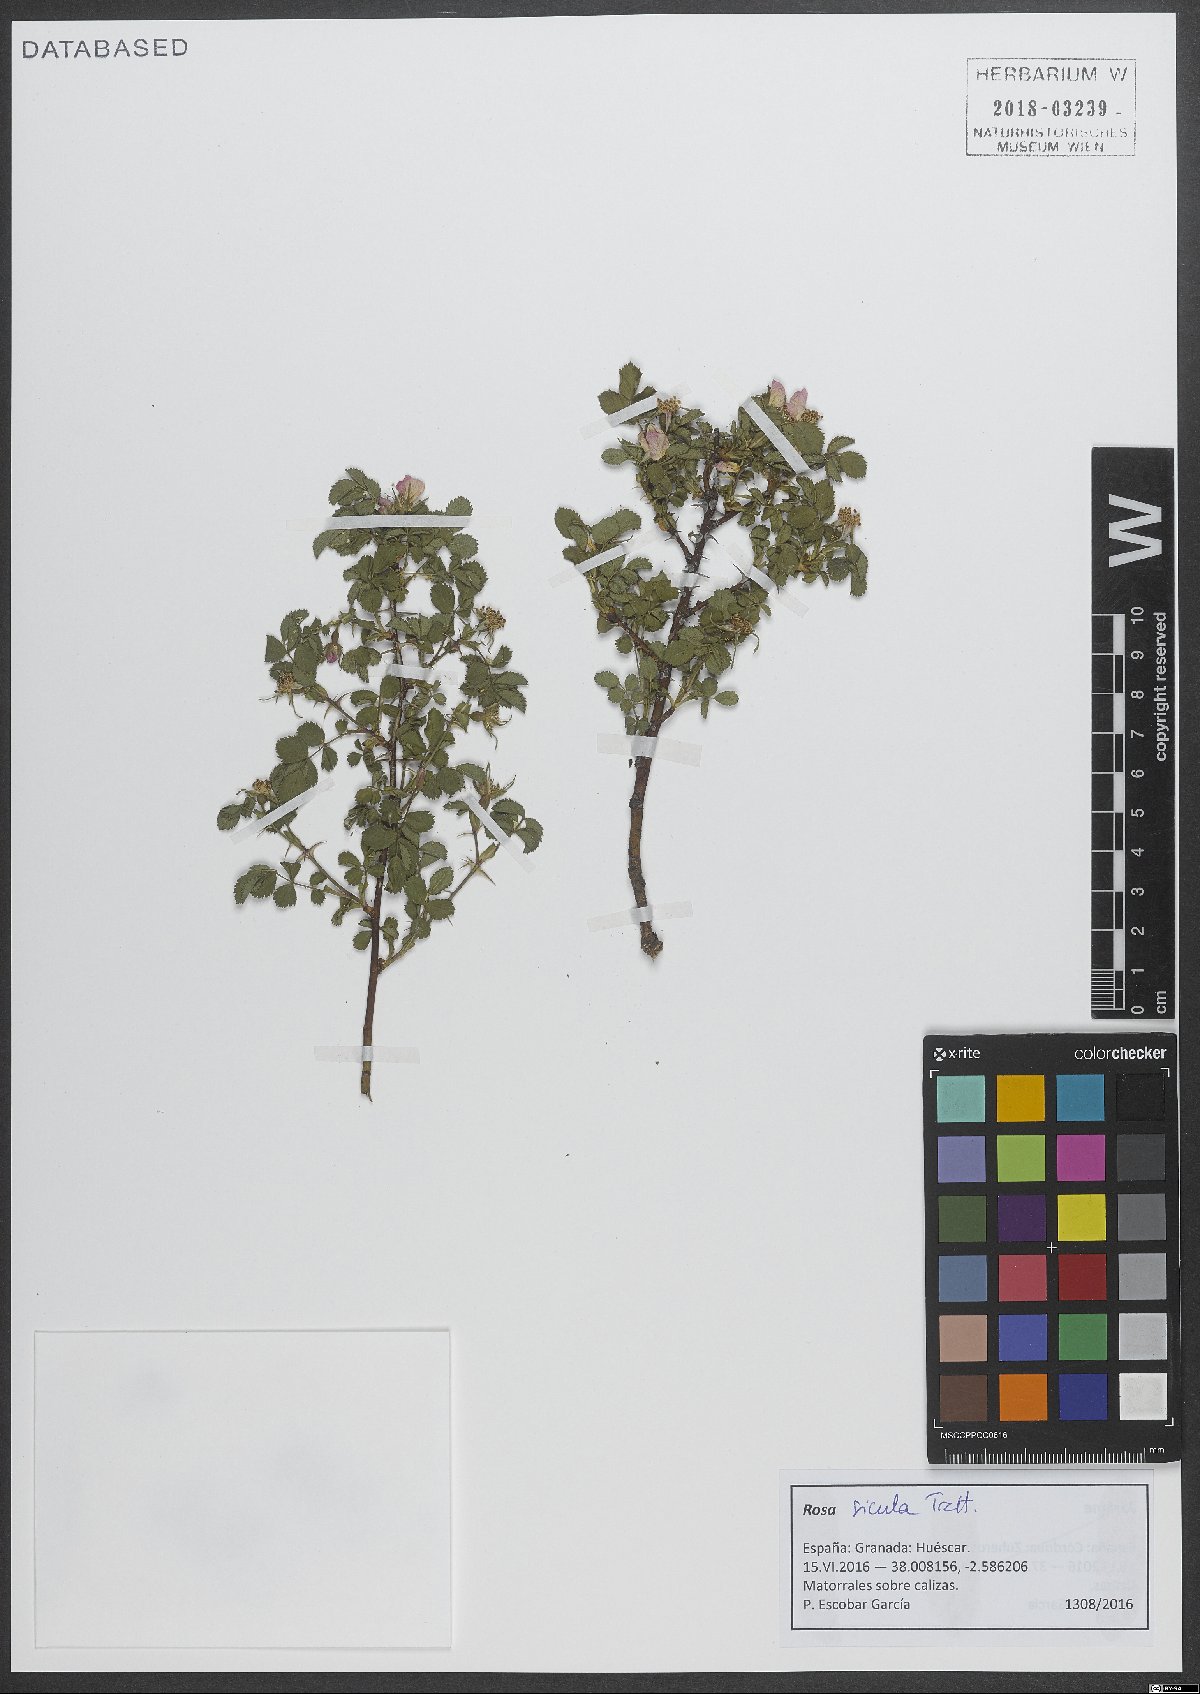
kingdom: Plantae
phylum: Tracheophyta
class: Magnoliopsida
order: Rosales
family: Rosaceae
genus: Rosa
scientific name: Rosa pulverulenta
